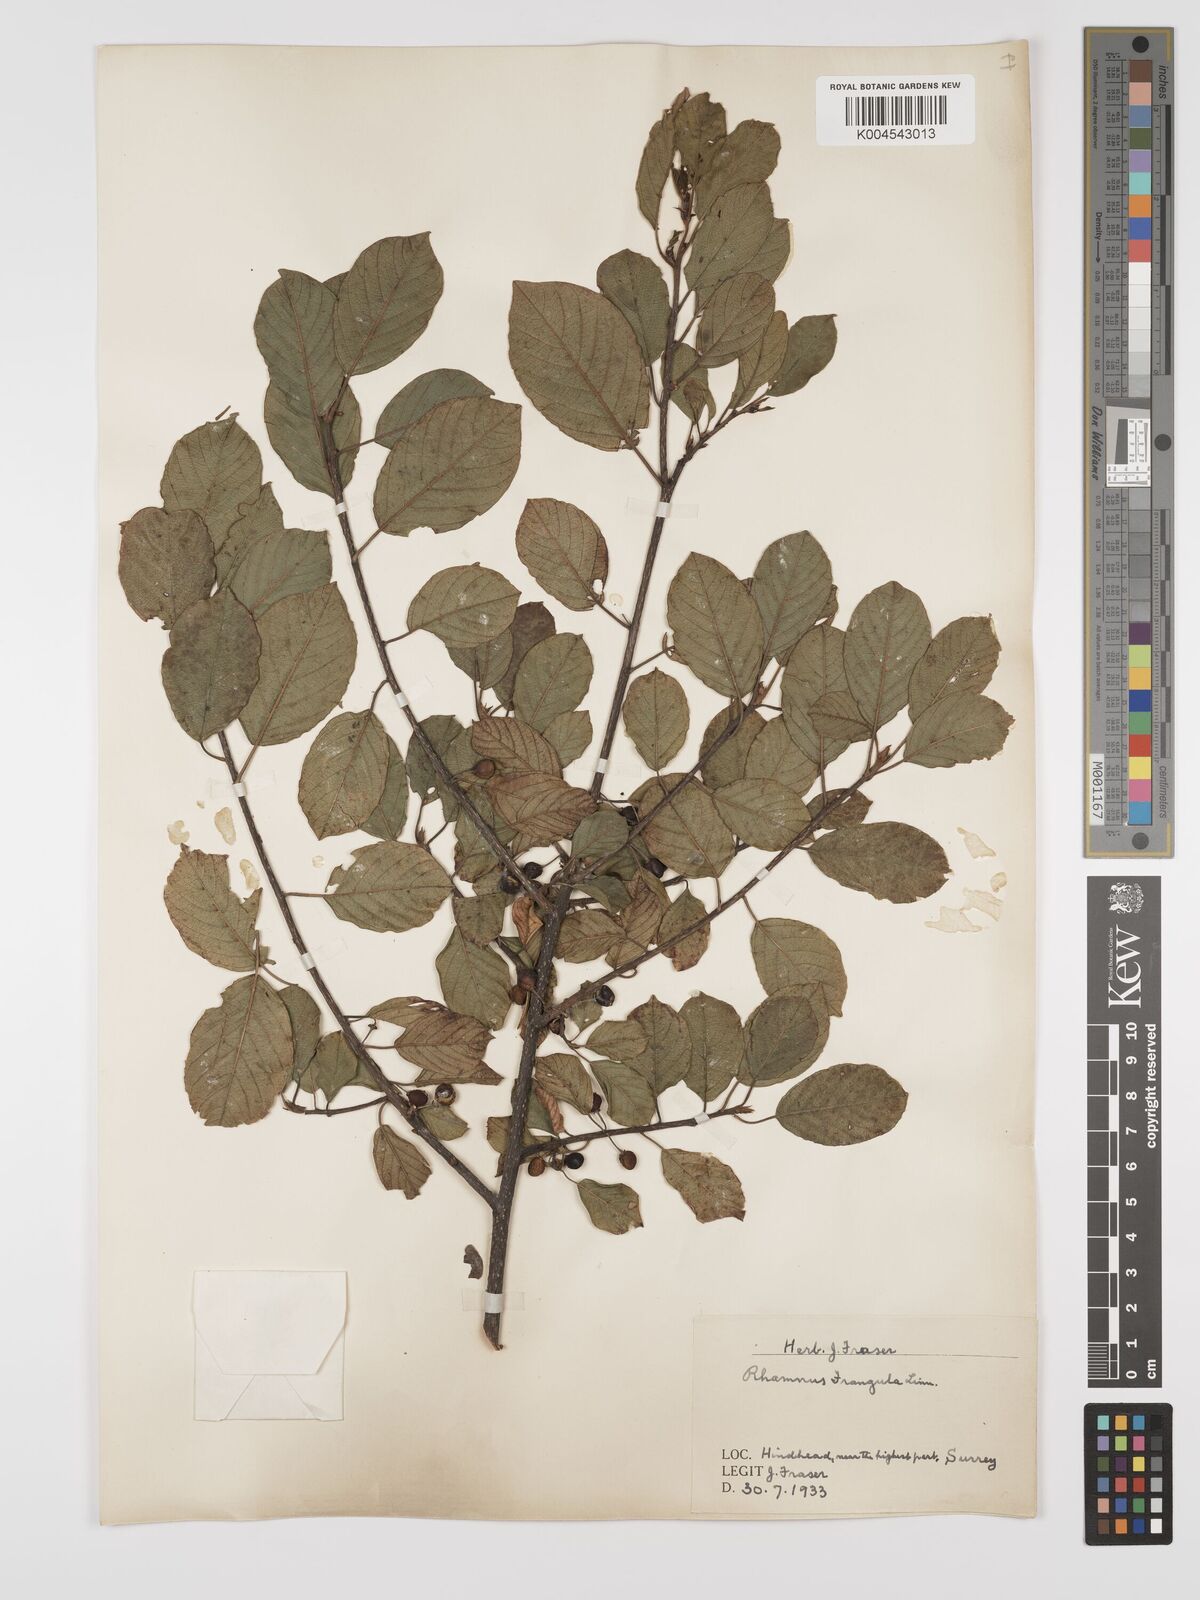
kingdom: Plantae
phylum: Tracheophyta
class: Magnoliopsida
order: Rosales
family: Rhamnaceae
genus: Frangula
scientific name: Frangula alnus
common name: Alder buckthorn
